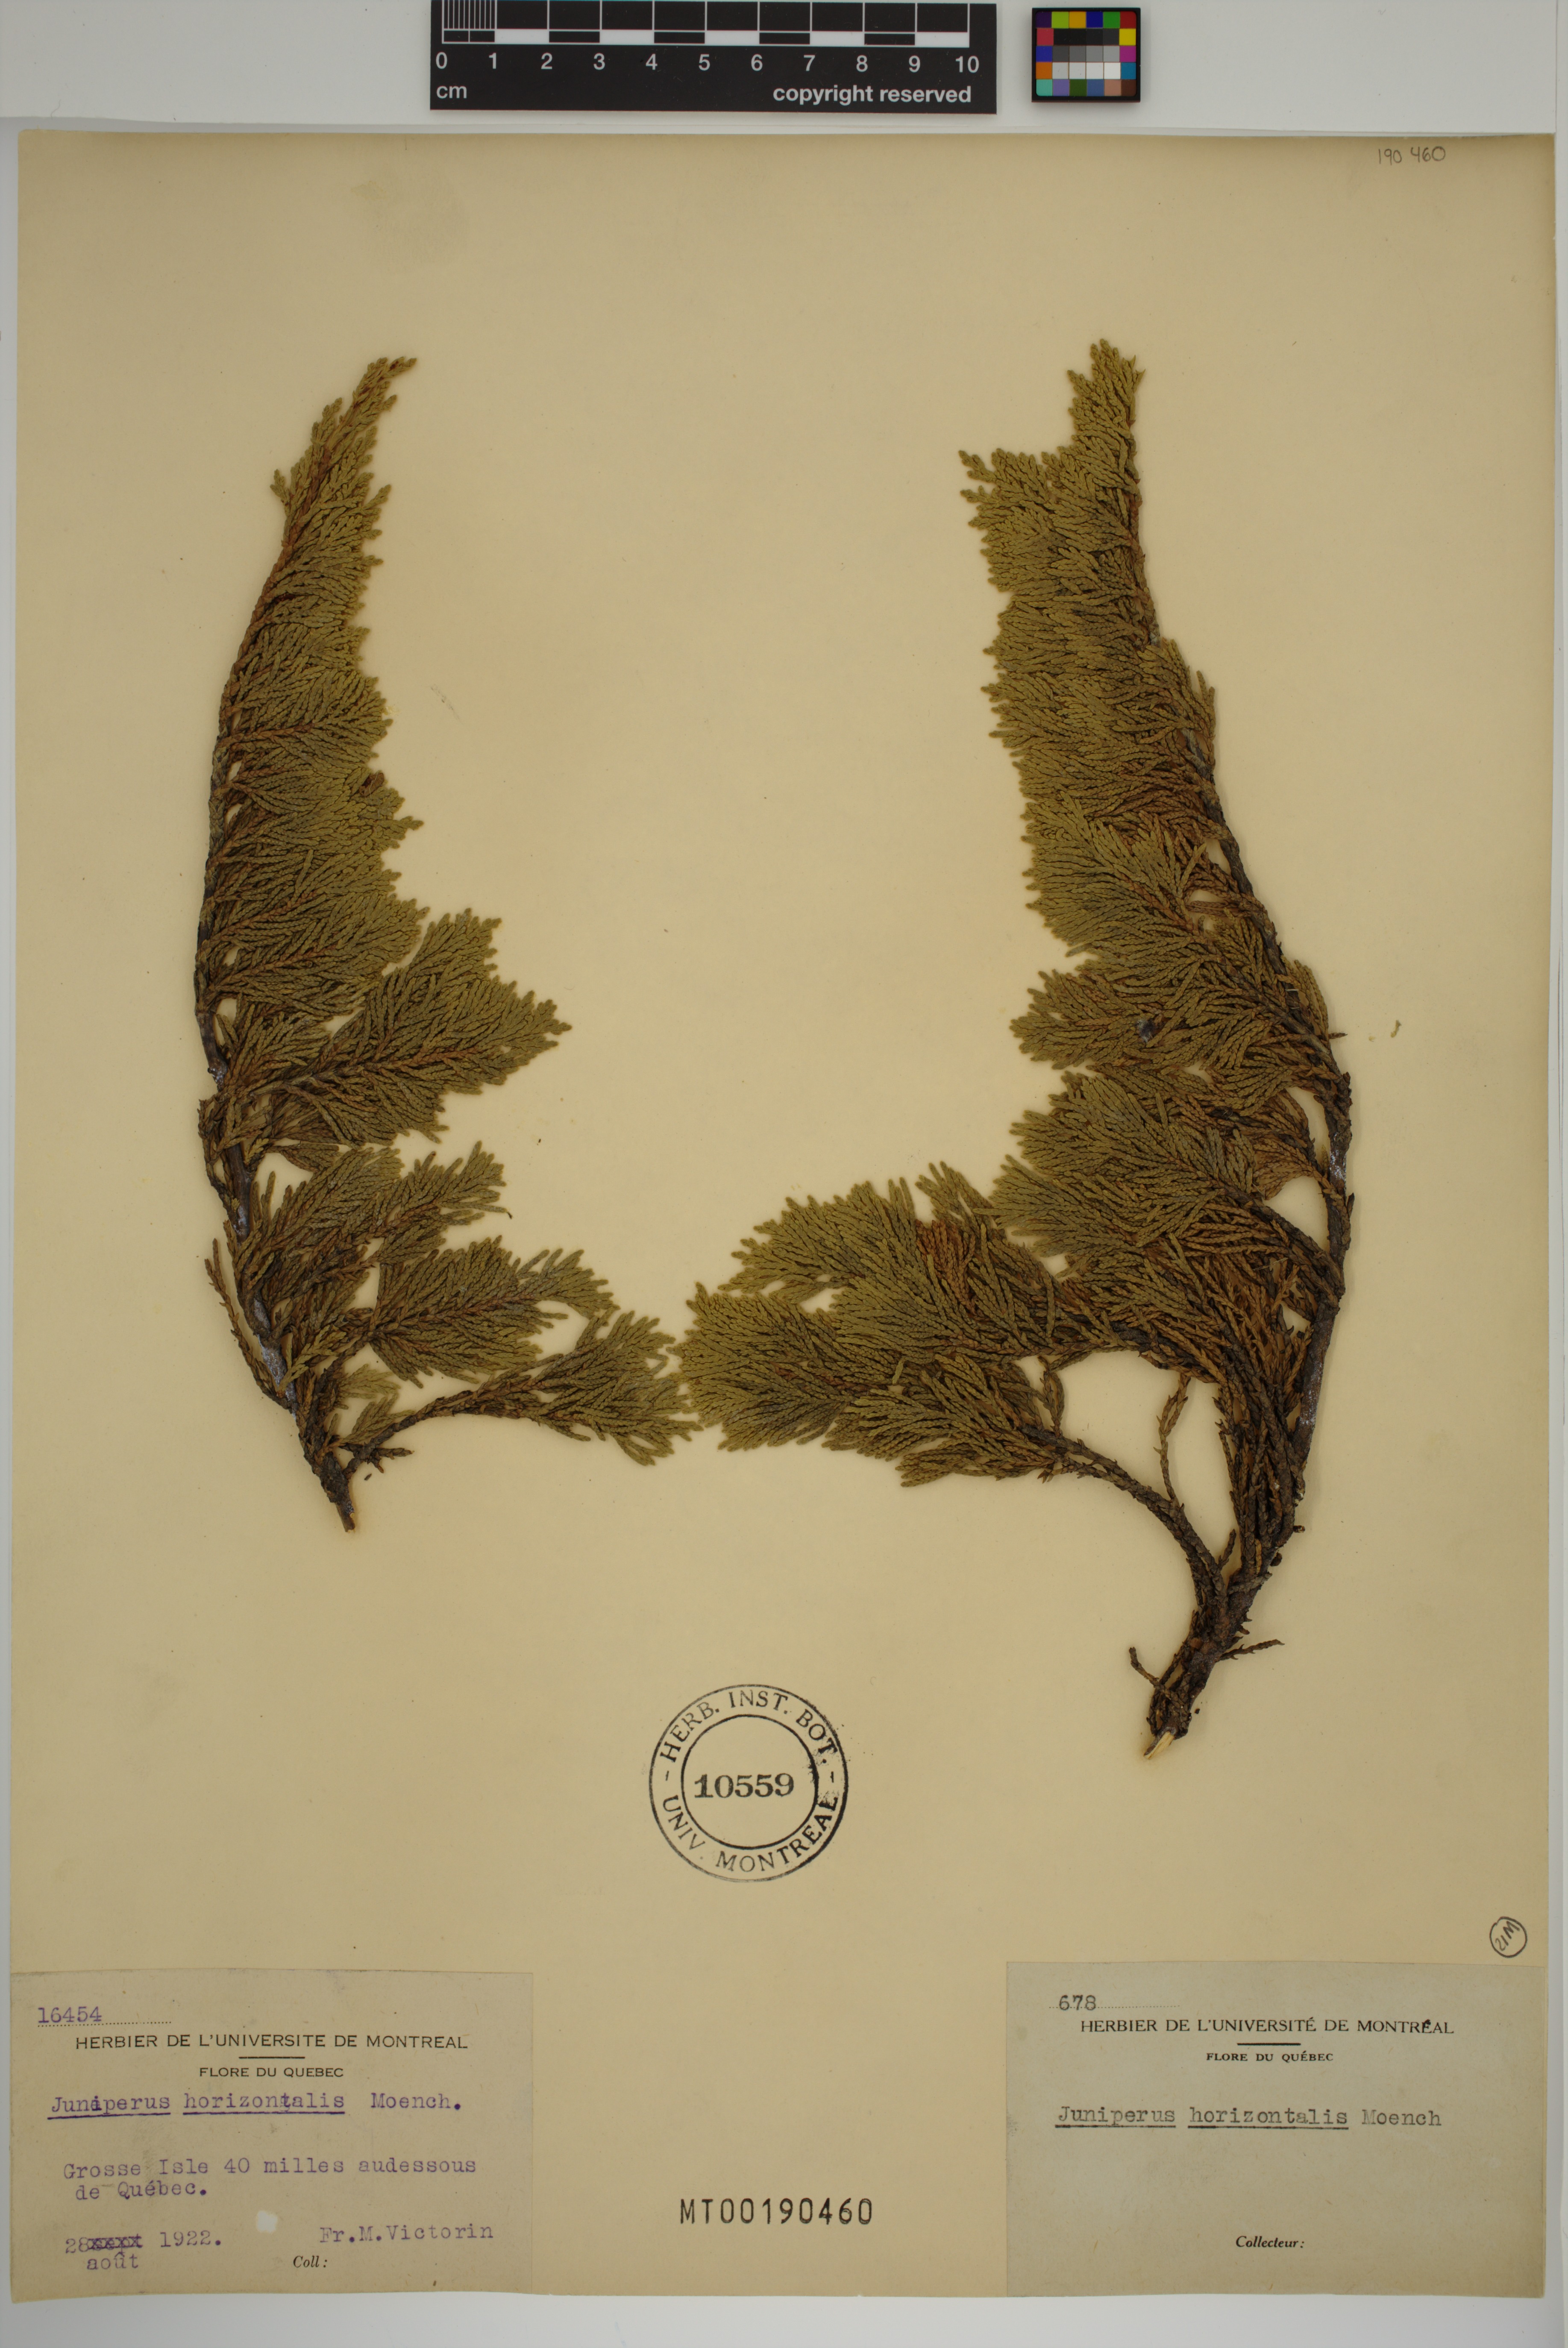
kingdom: Plantae
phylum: Tracheophyta
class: Pinopsida
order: Pinales
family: Cupressaceae
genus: Juniperus
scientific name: Juniperus horizontalis
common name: Creeping juniper
